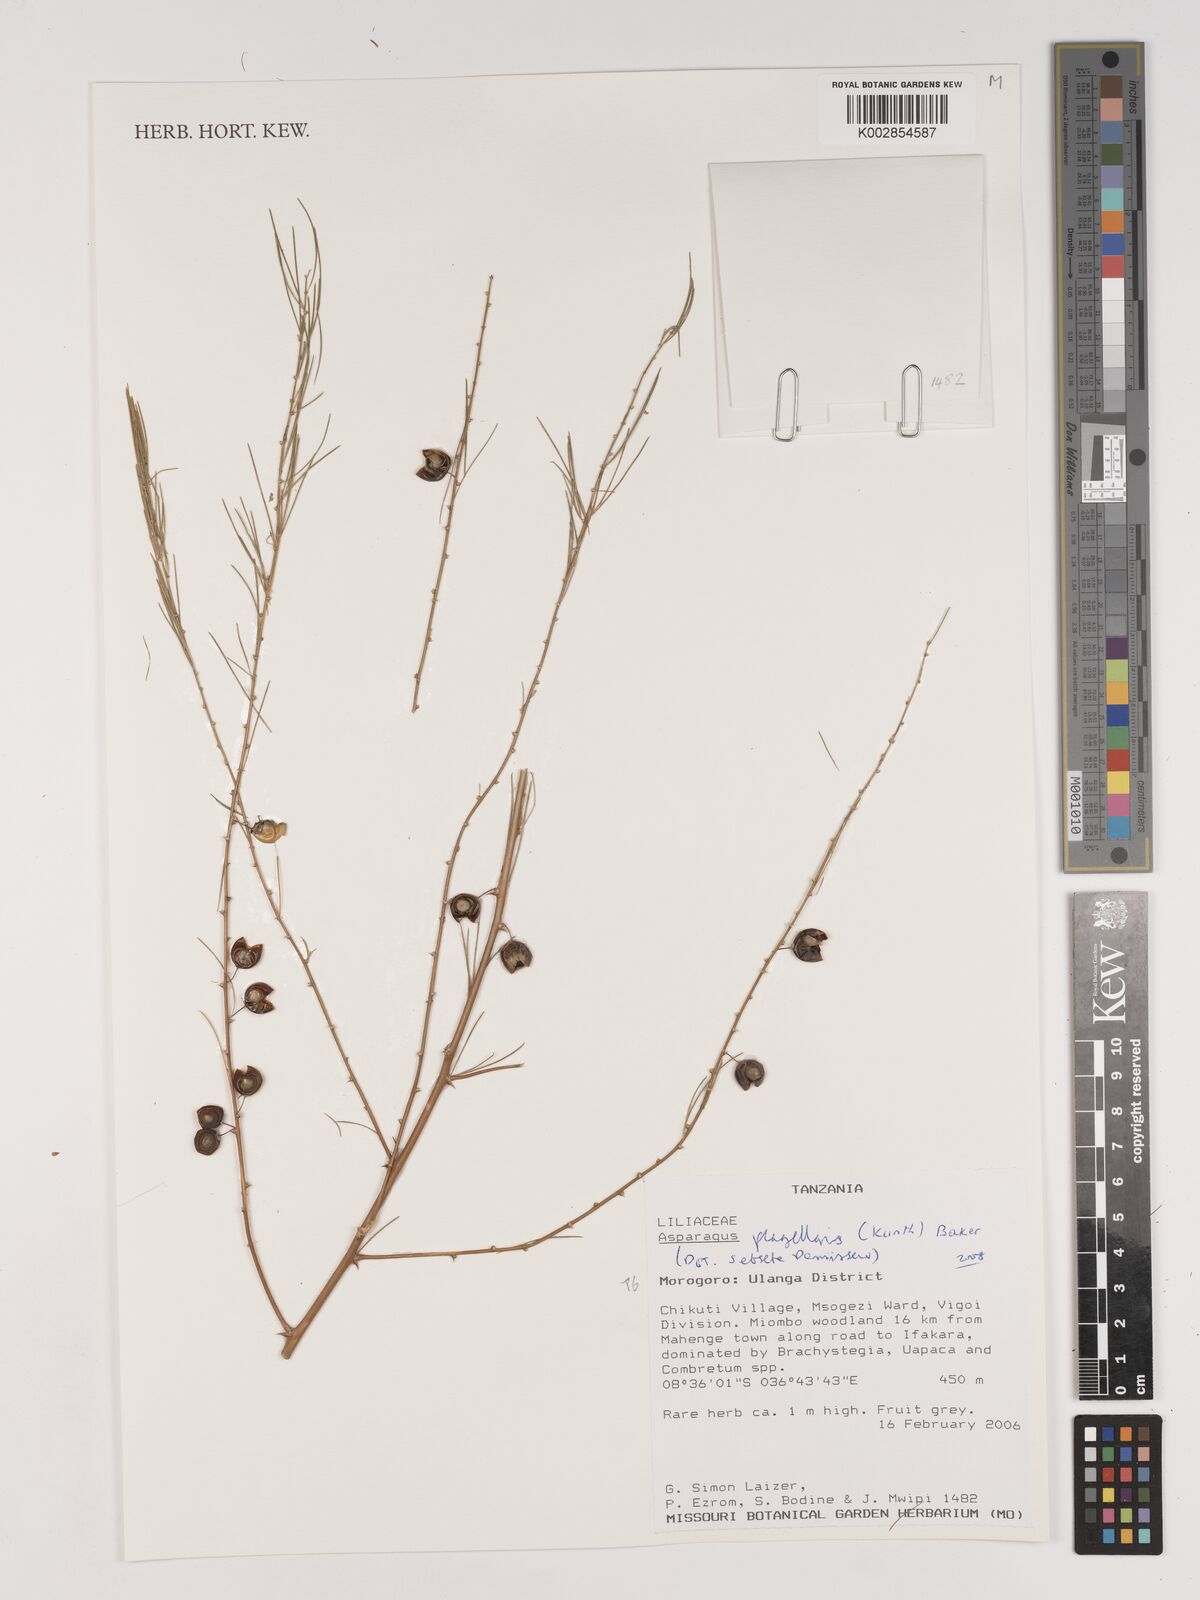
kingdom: Plantae
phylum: Tracheophyta
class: Liliopsida
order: Asparagales
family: Asparagaceae
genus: Asparagus
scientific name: Asparagus flagellaris
